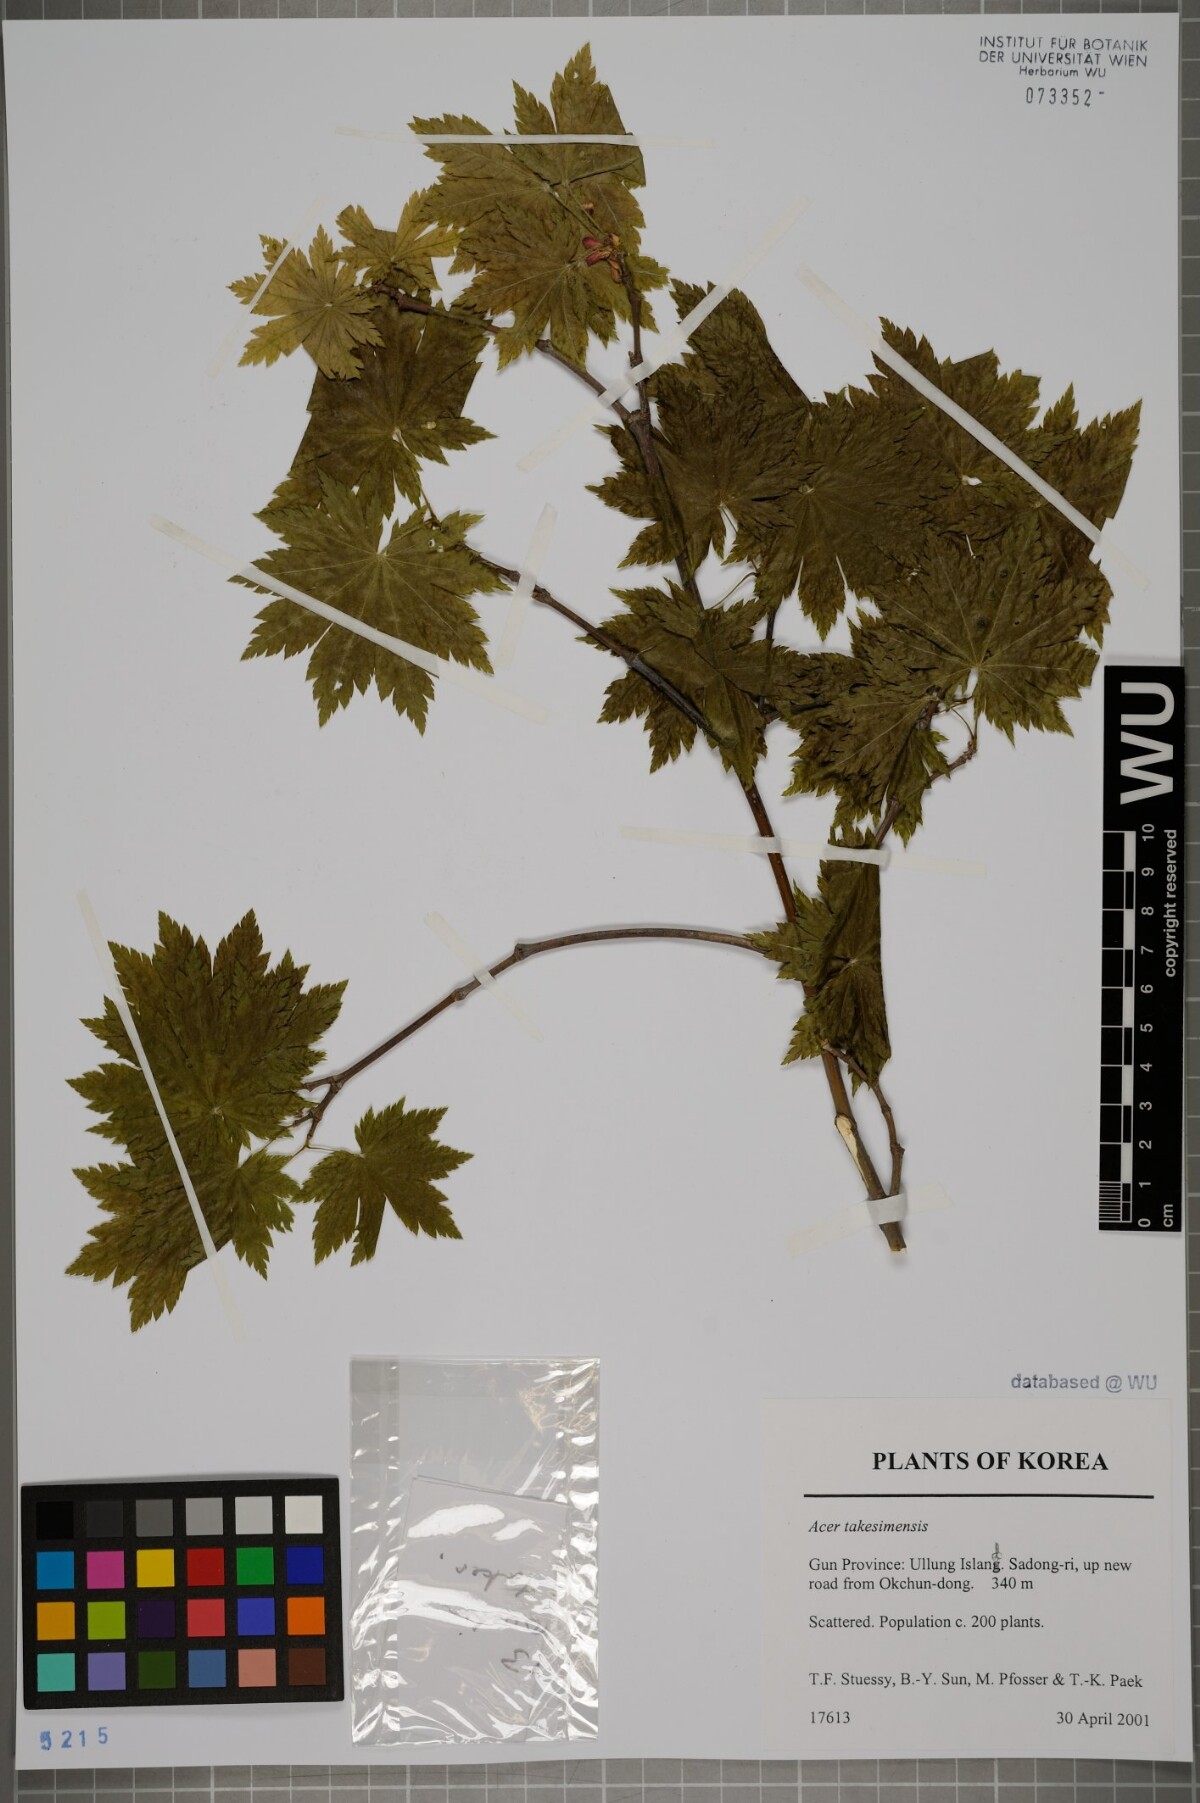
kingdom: Plantae
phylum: Tracheophyta
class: Magnoliopsida
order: Sapindales
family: Sapindaceae
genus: Acer
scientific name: Acer pseudosieboldianum
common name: Korean maple
